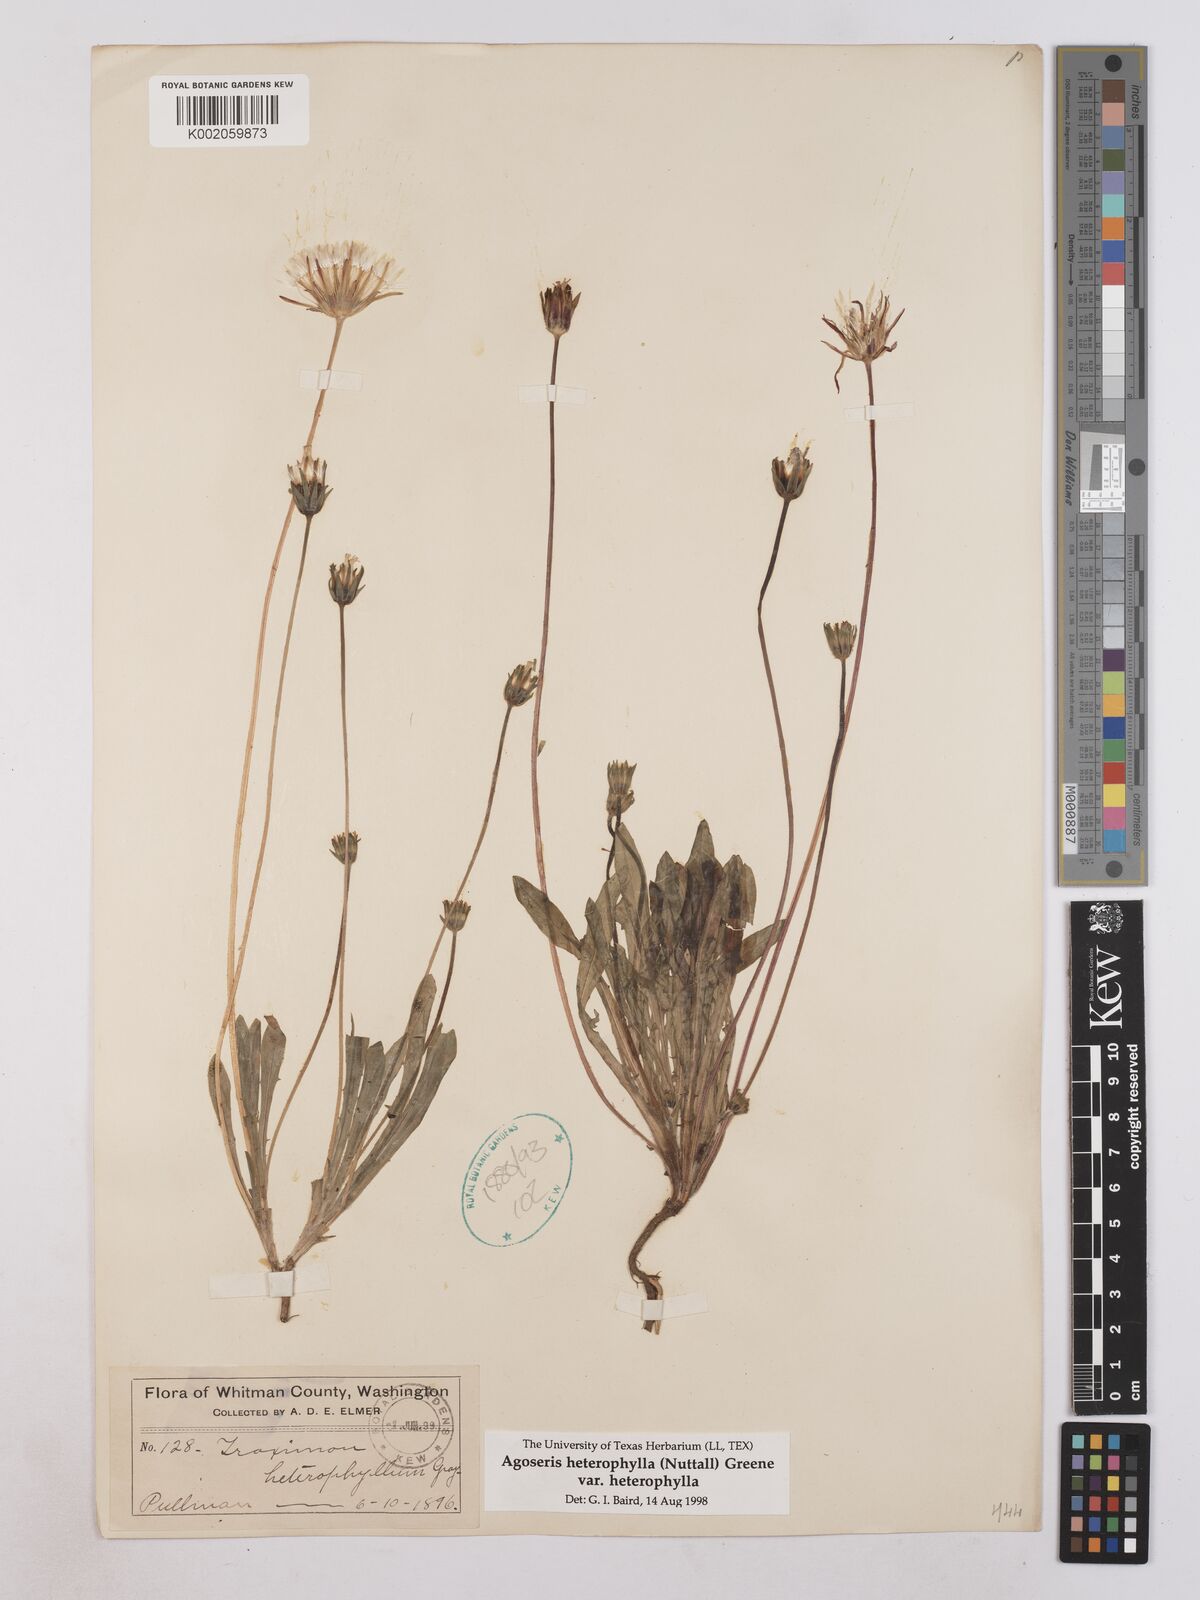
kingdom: Plantae
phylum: Tracheophyta
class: Magnoliopsida
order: Asterales
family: Asteraceae
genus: Agoseris
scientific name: Agoseris heterophylla
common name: Annual agoseris
